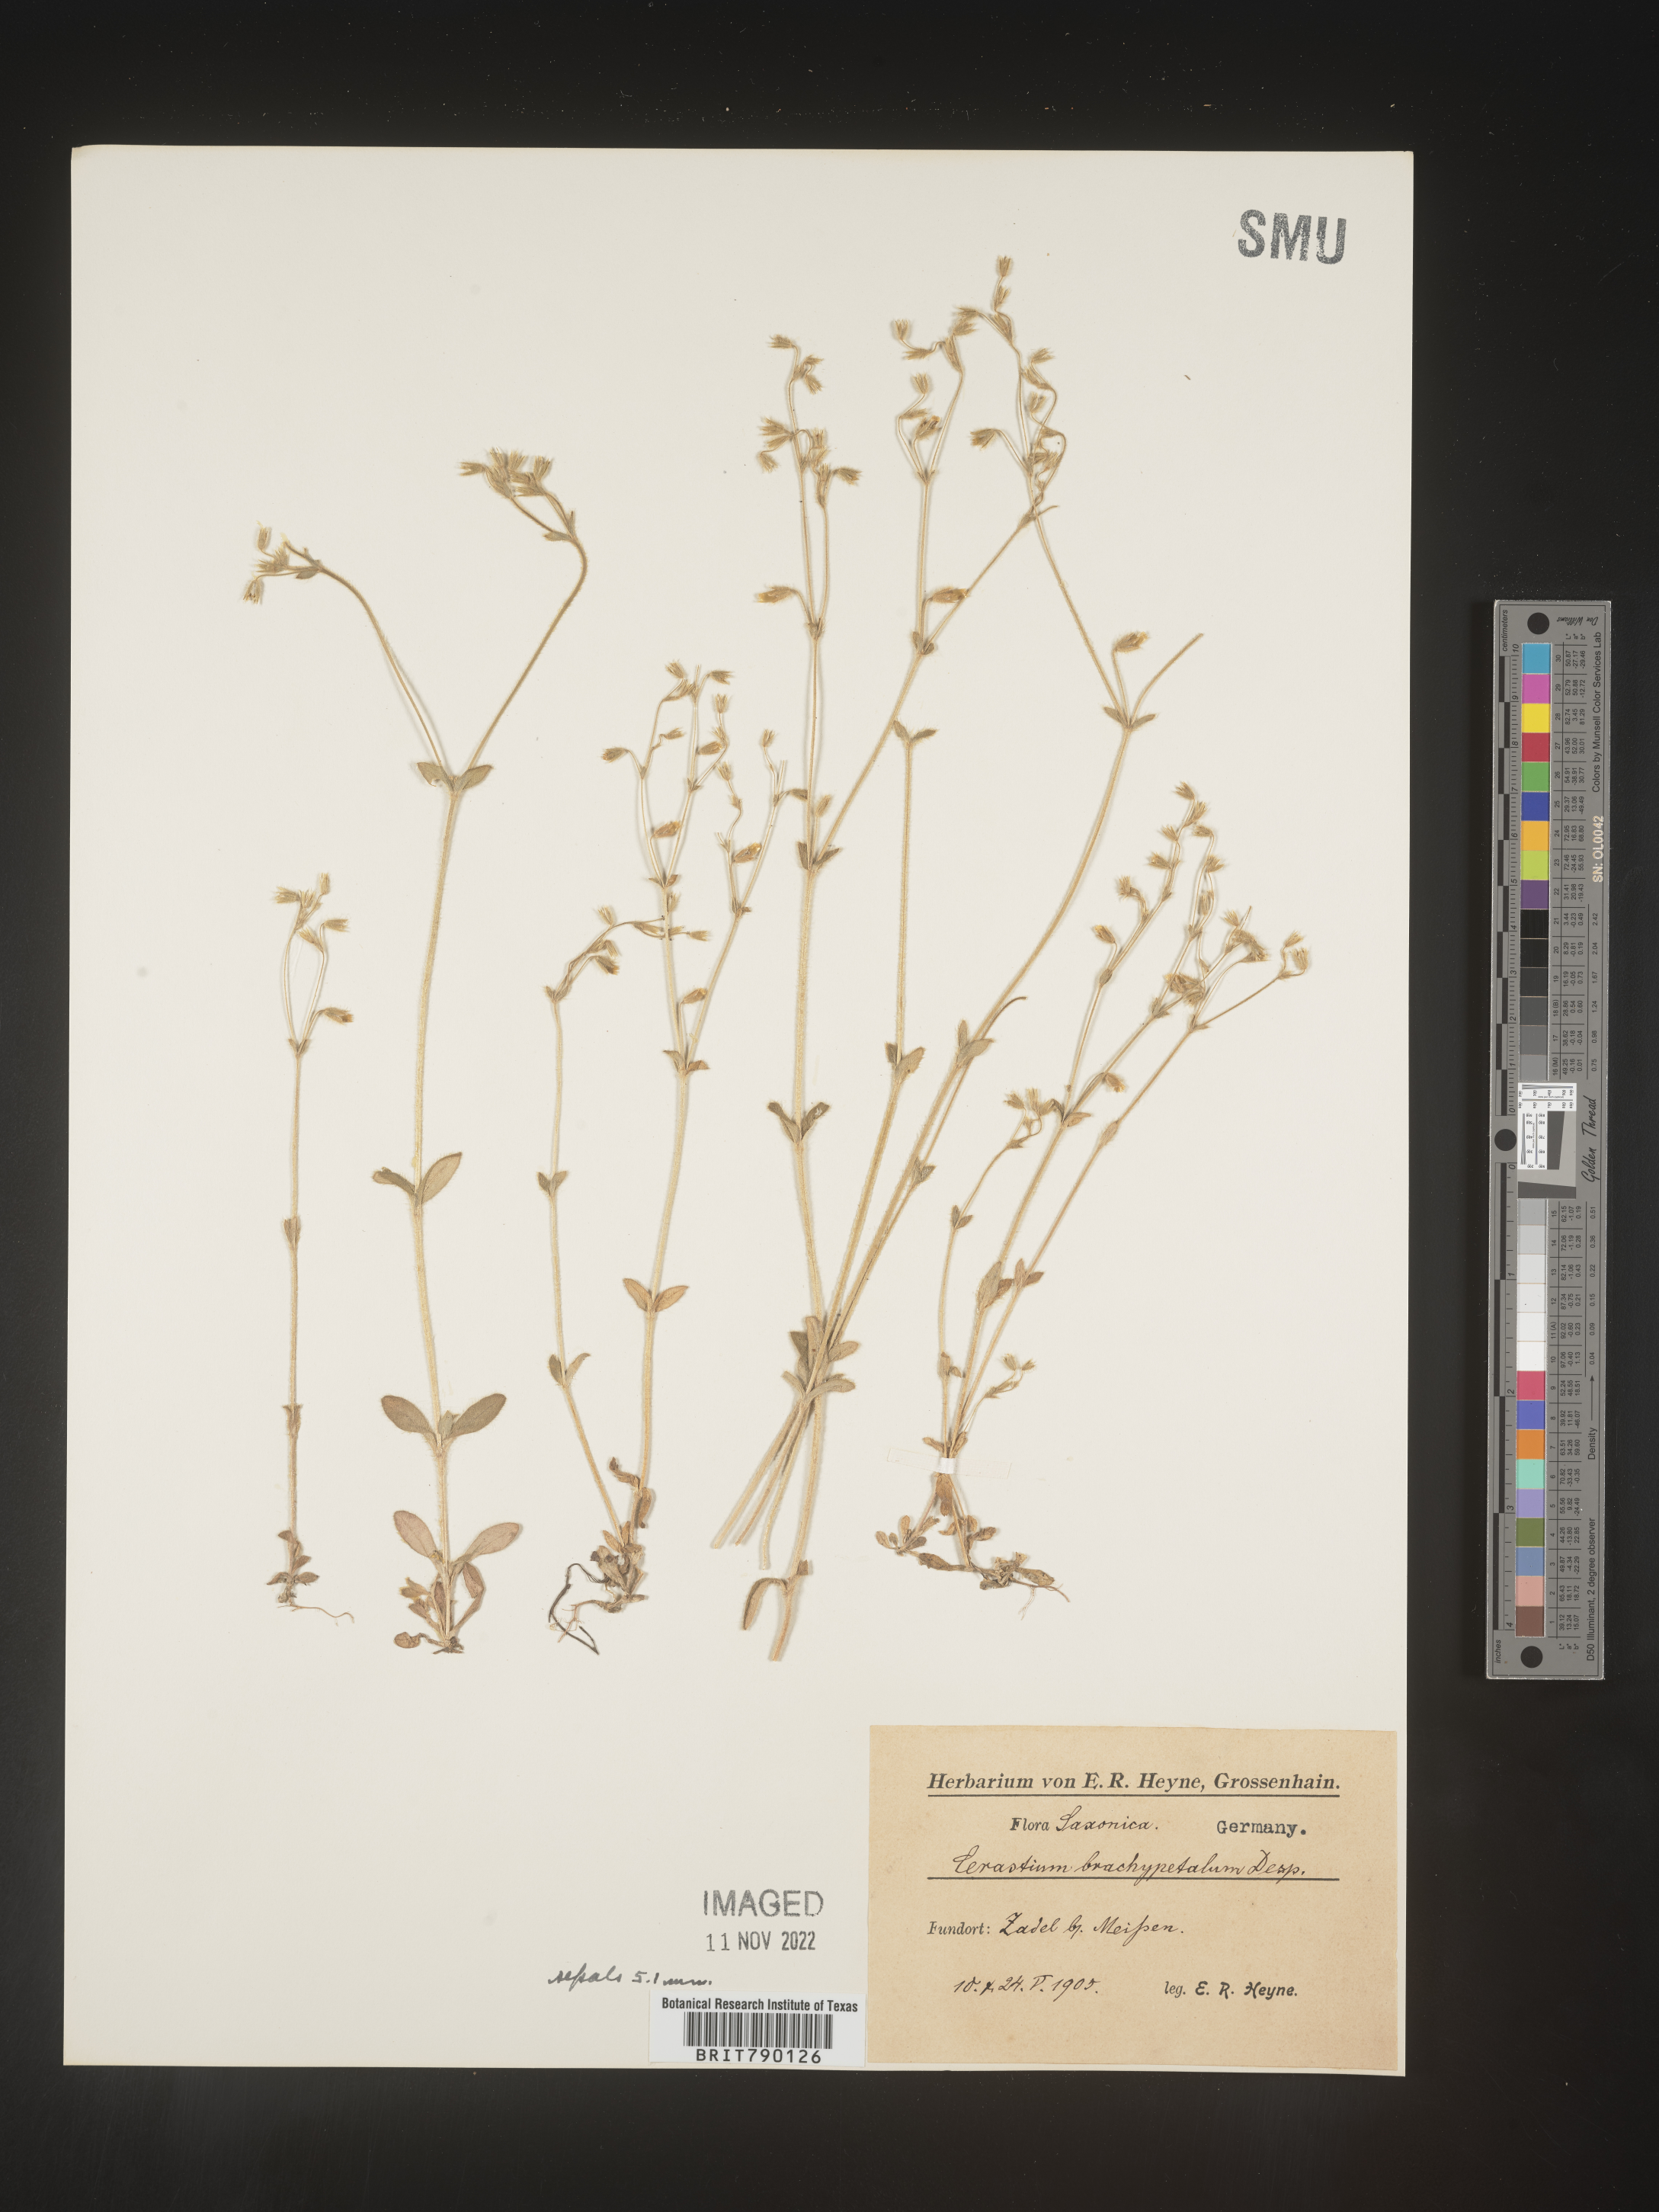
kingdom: Plantae
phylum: Tracheophyta
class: Magnoliopsida
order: Caryophyllales
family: Caryophyllaceae
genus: Cerastium
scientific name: Cerastium
